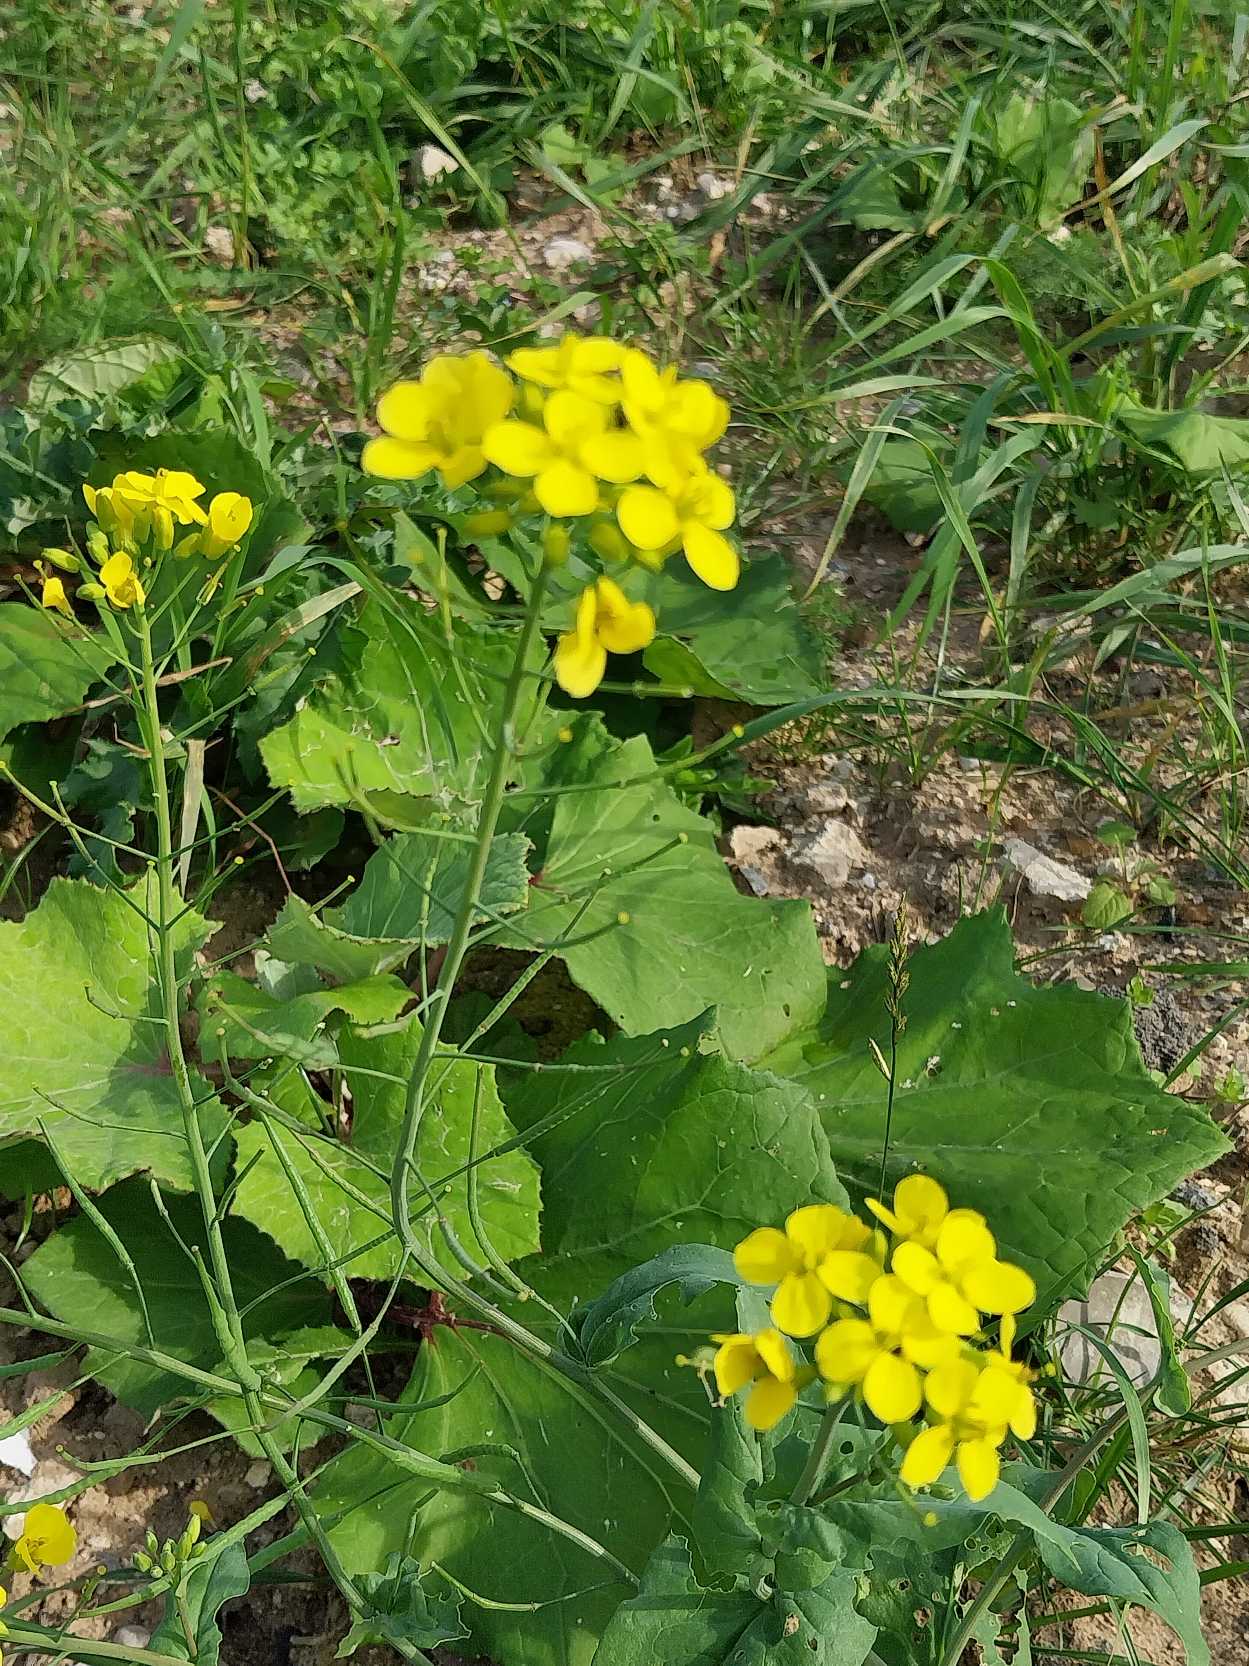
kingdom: Plantae
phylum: Tracheophyta
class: Magnoliopsida
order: Brassicales
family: Brassicaceae
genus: Brassica
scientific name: Brassica rapa
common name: Ager-kål
